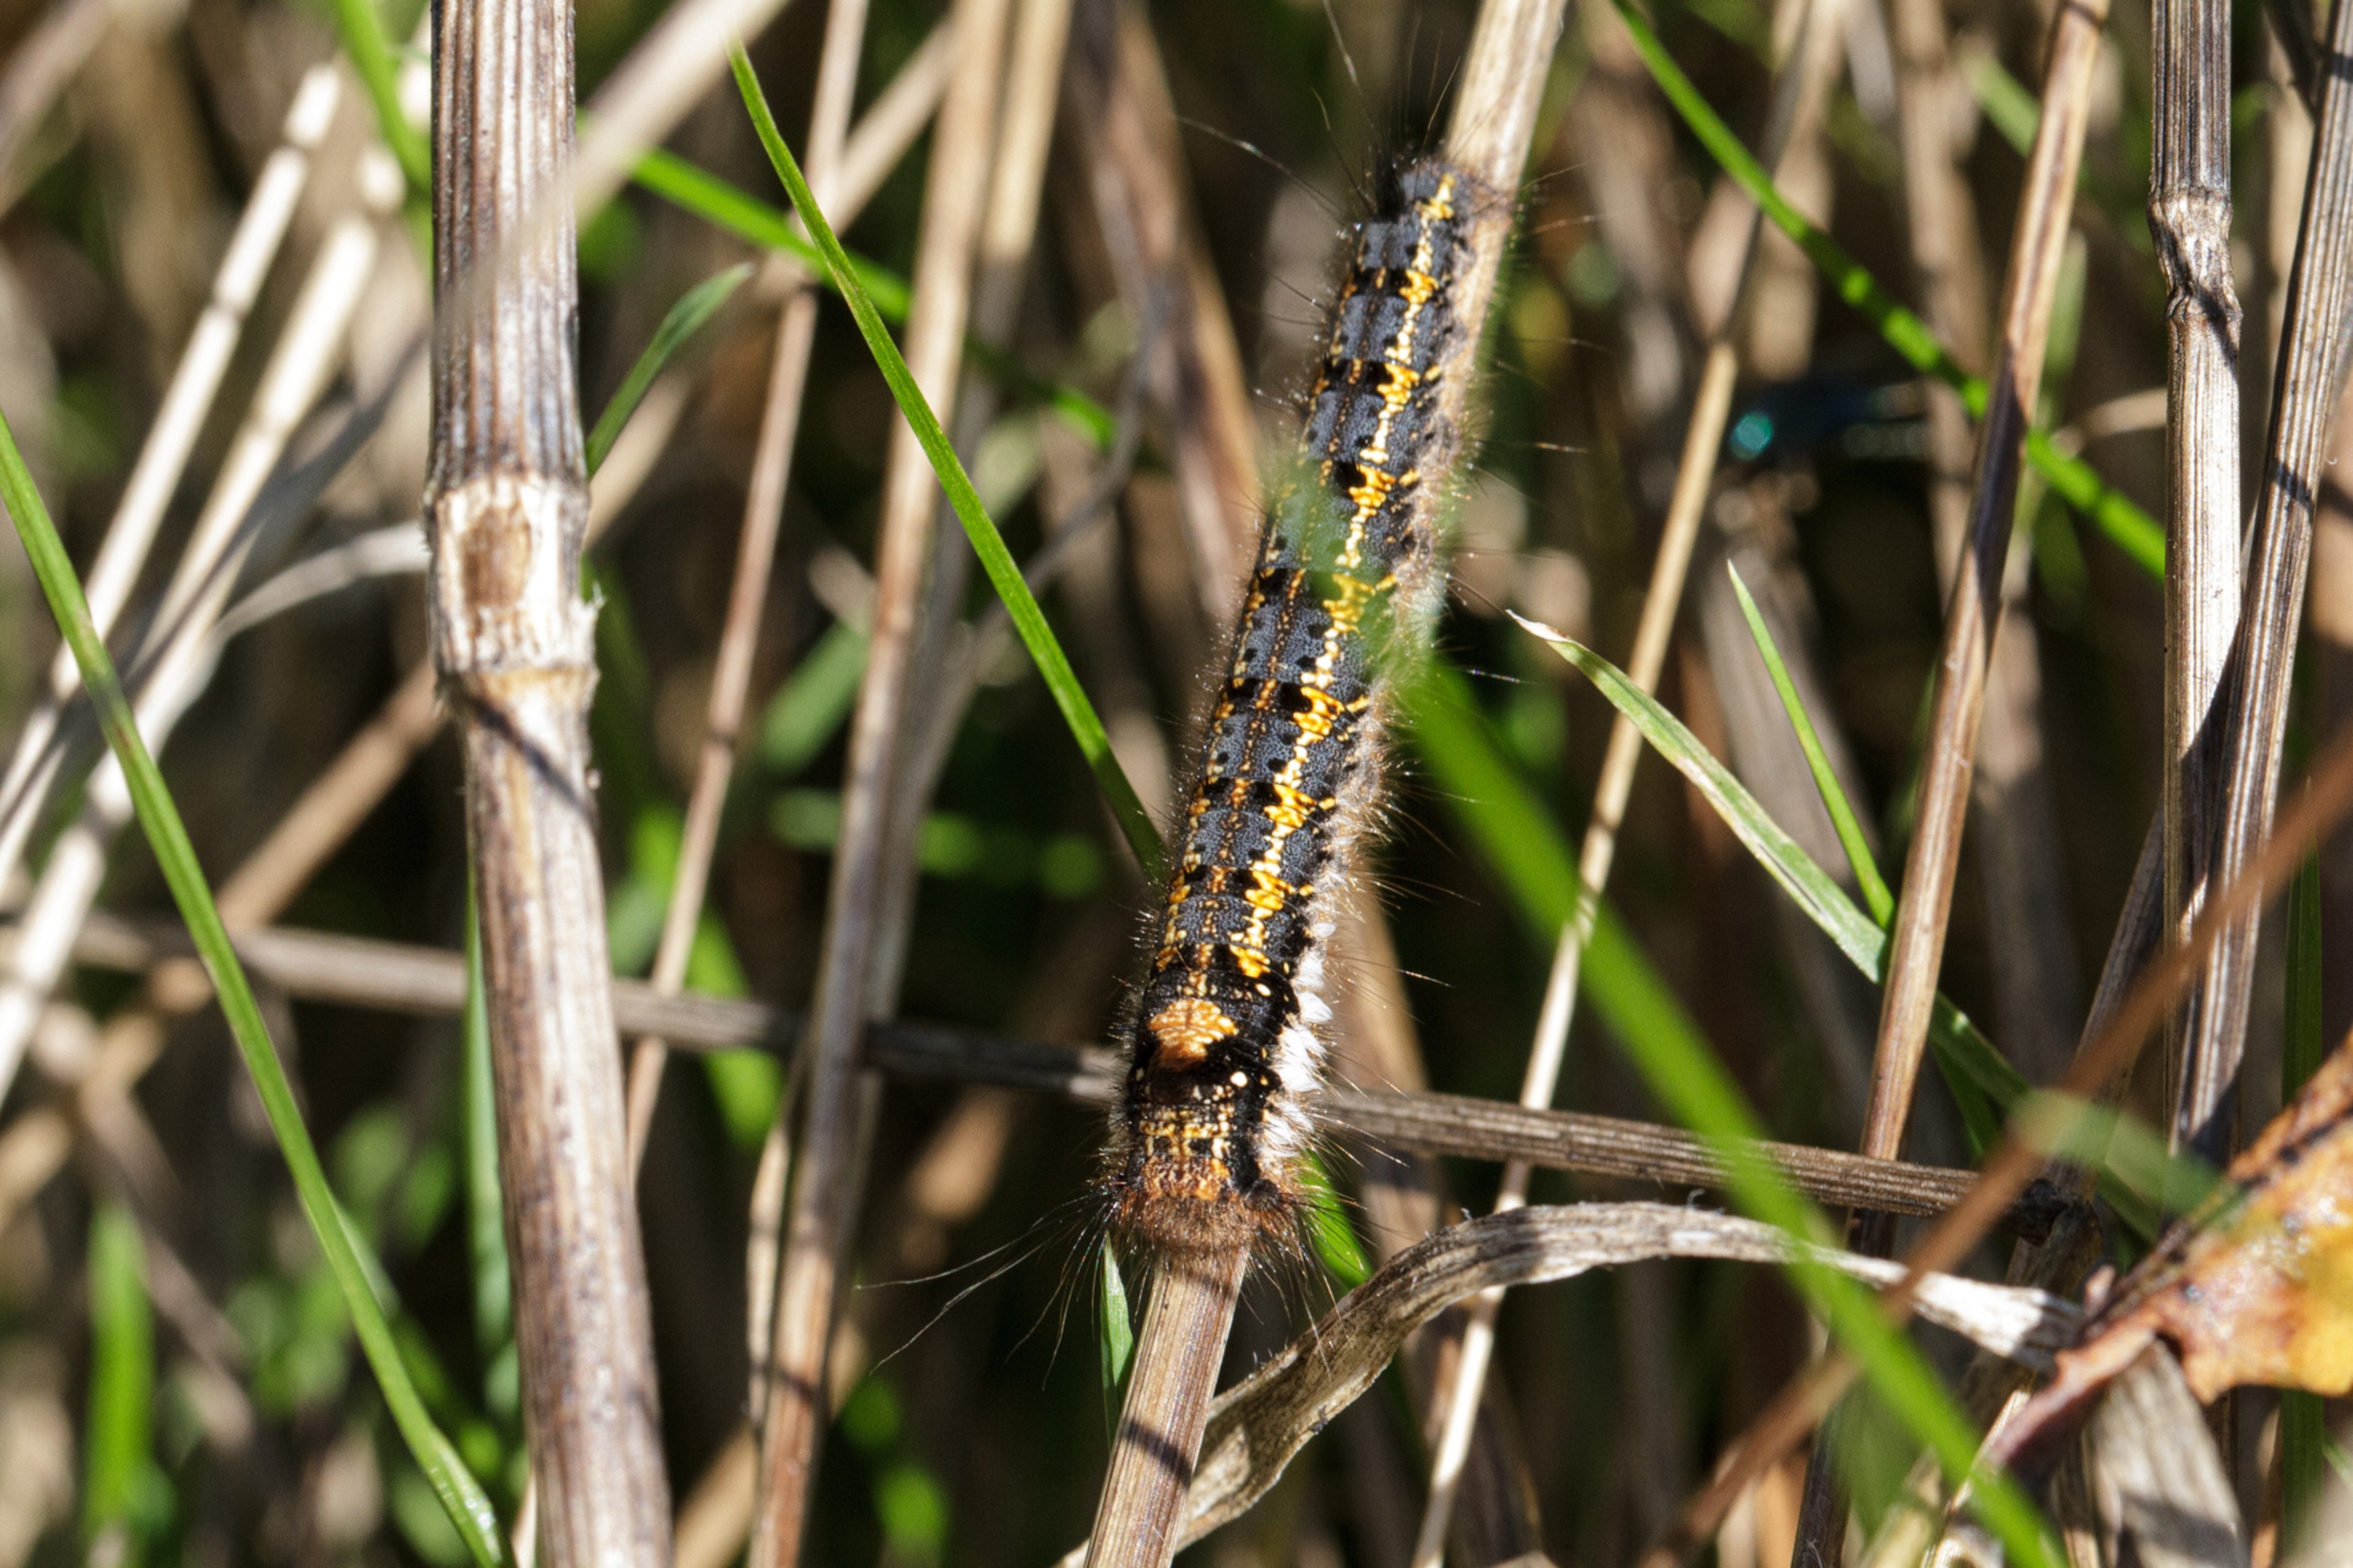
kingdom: Animalia
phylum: Arthropoda
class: Insecta
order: Lepidoptera
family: Lasiocampidae
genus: Euthrix
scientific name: Euthrix potatoria
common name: Græsspinder
